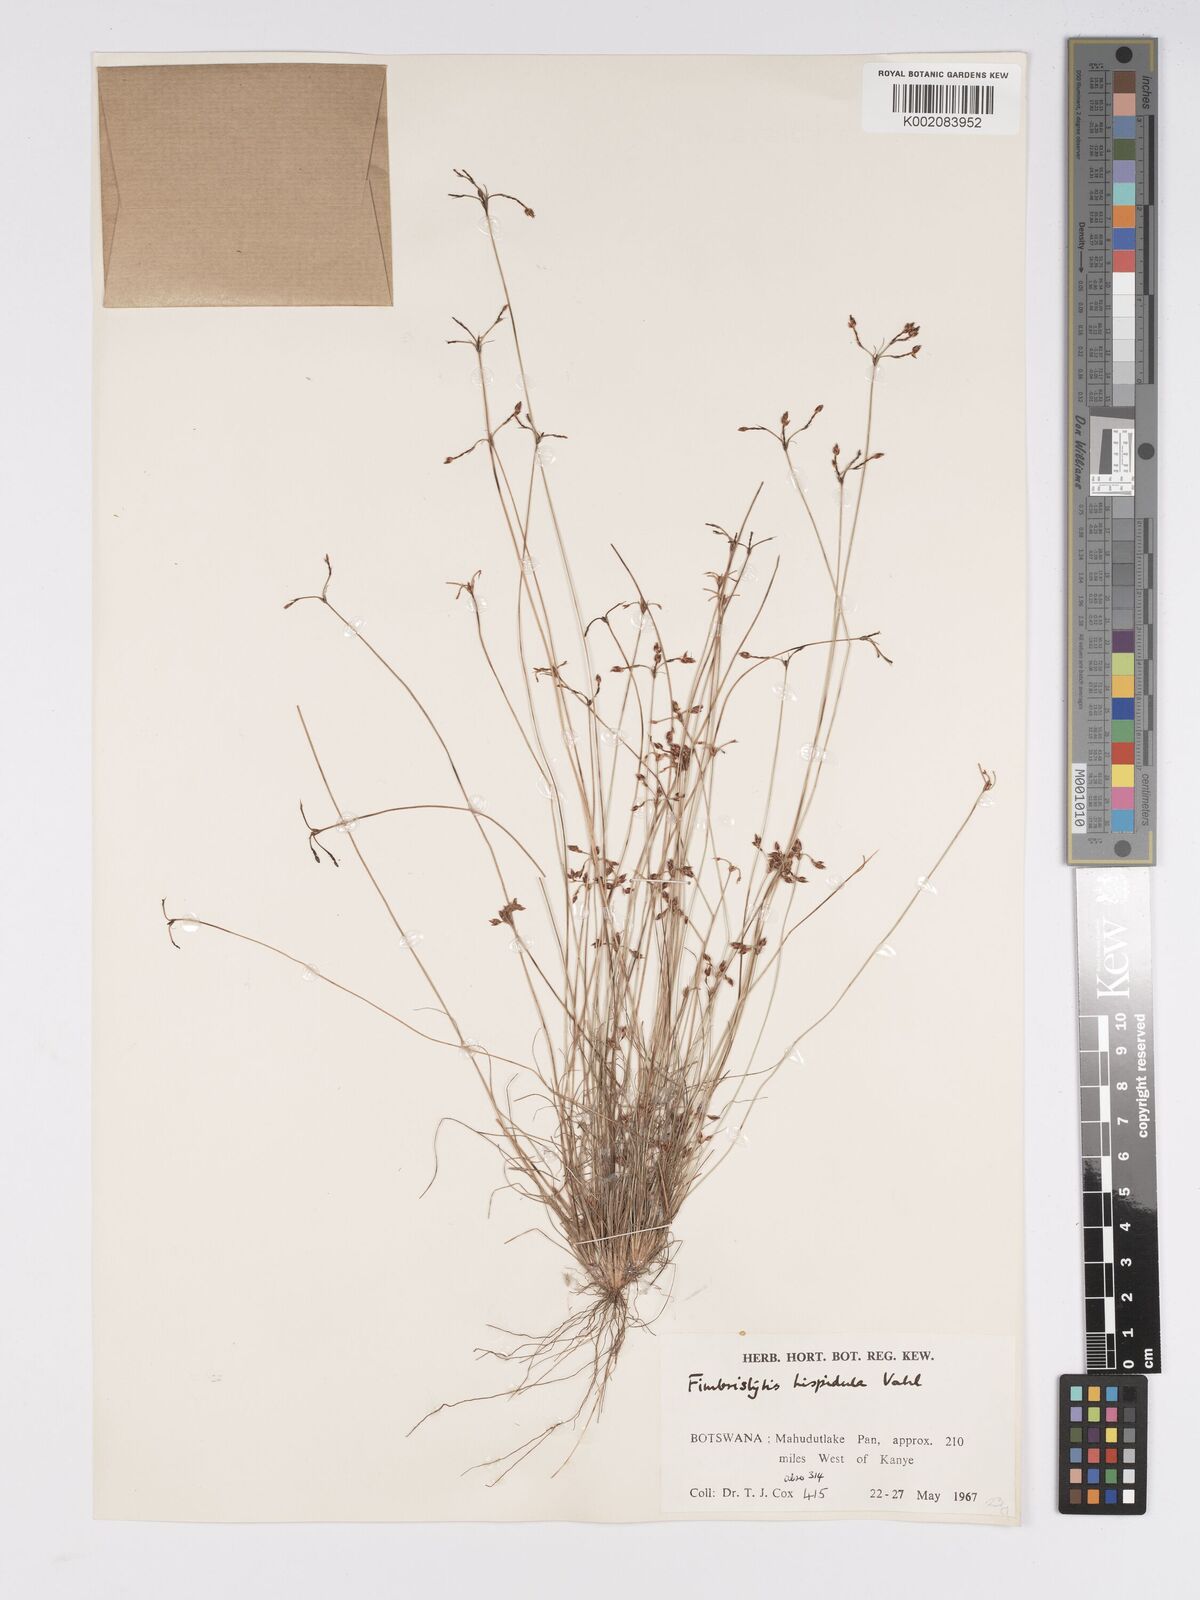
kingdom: Plantae
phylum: Tracheophyta
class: Liliopsida
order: Poales
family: Cyperaceae
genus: Bulbostylis
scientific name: Bulbostylis hispidula
